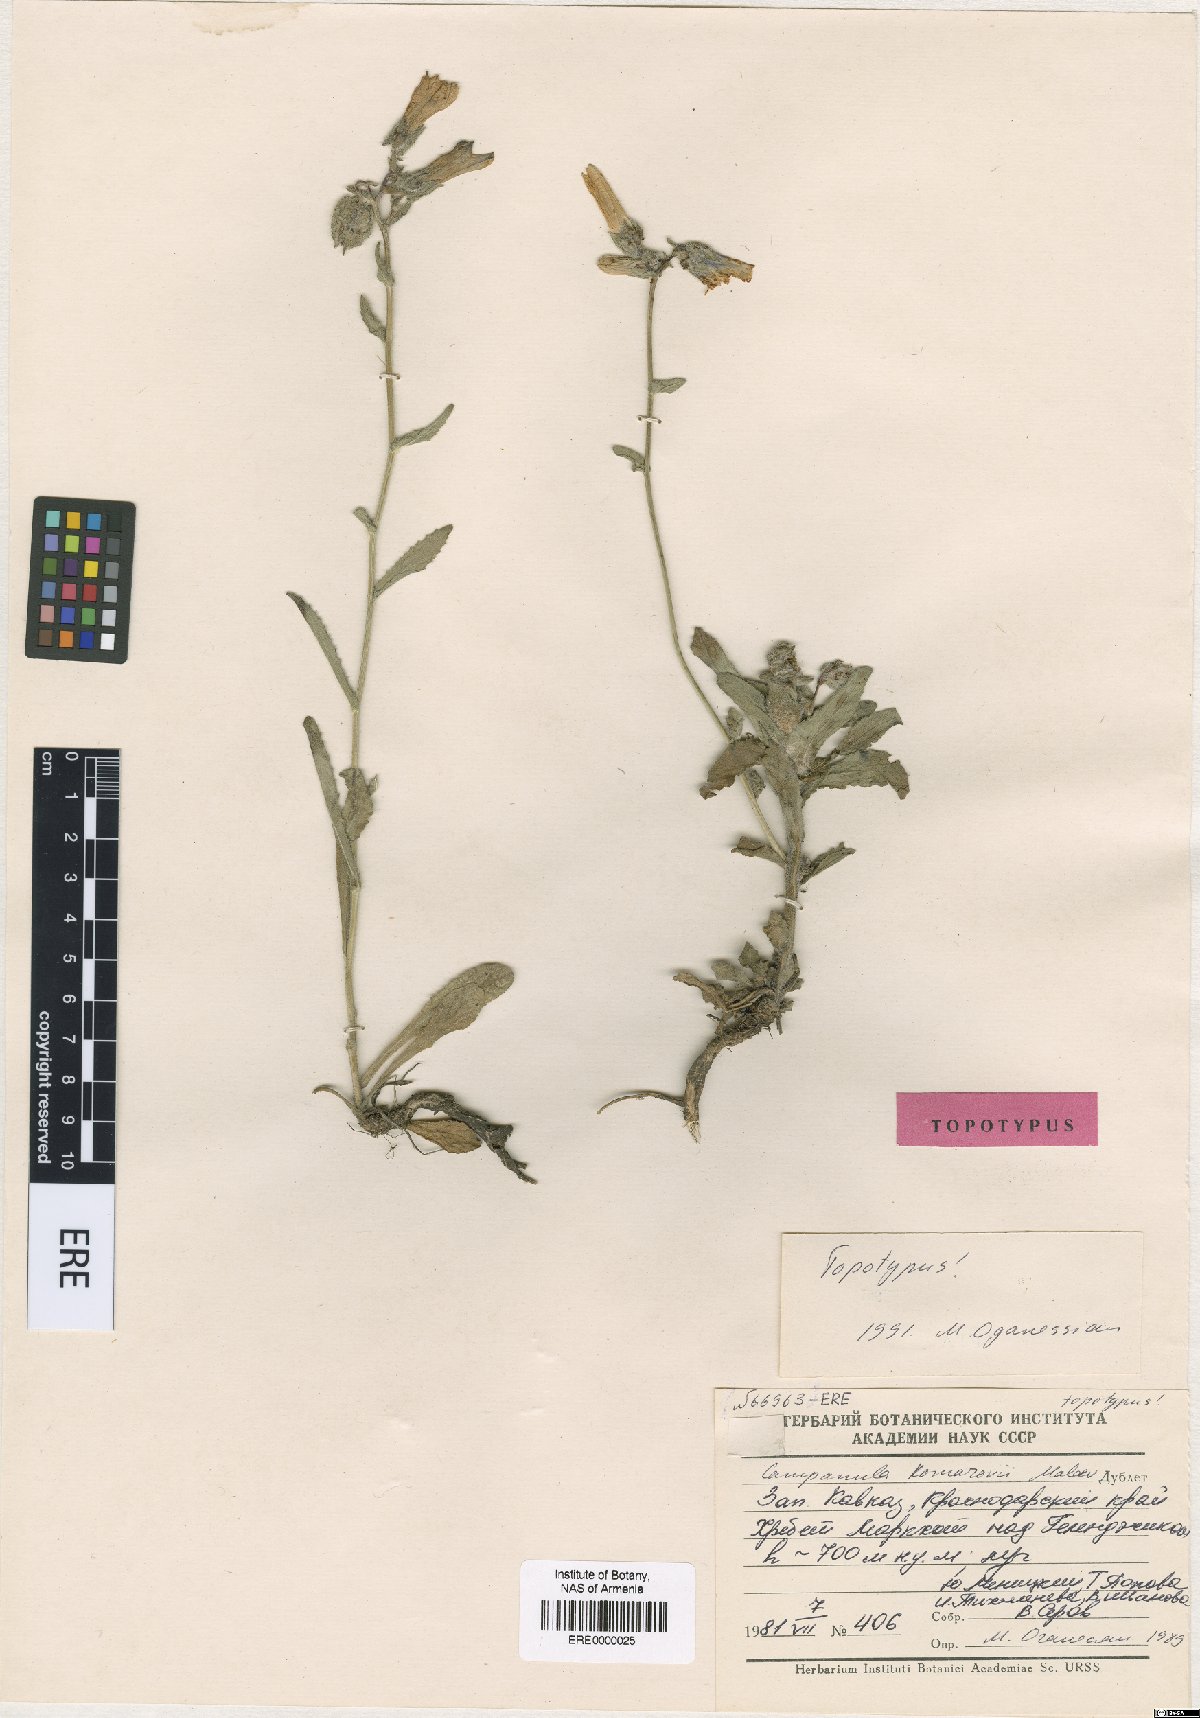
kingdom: Plantae
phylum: Tracheophyta
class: Magnoliopsida
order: Asterales
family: Campanulaceae
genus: Campanula
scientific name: Campanula komarovii
